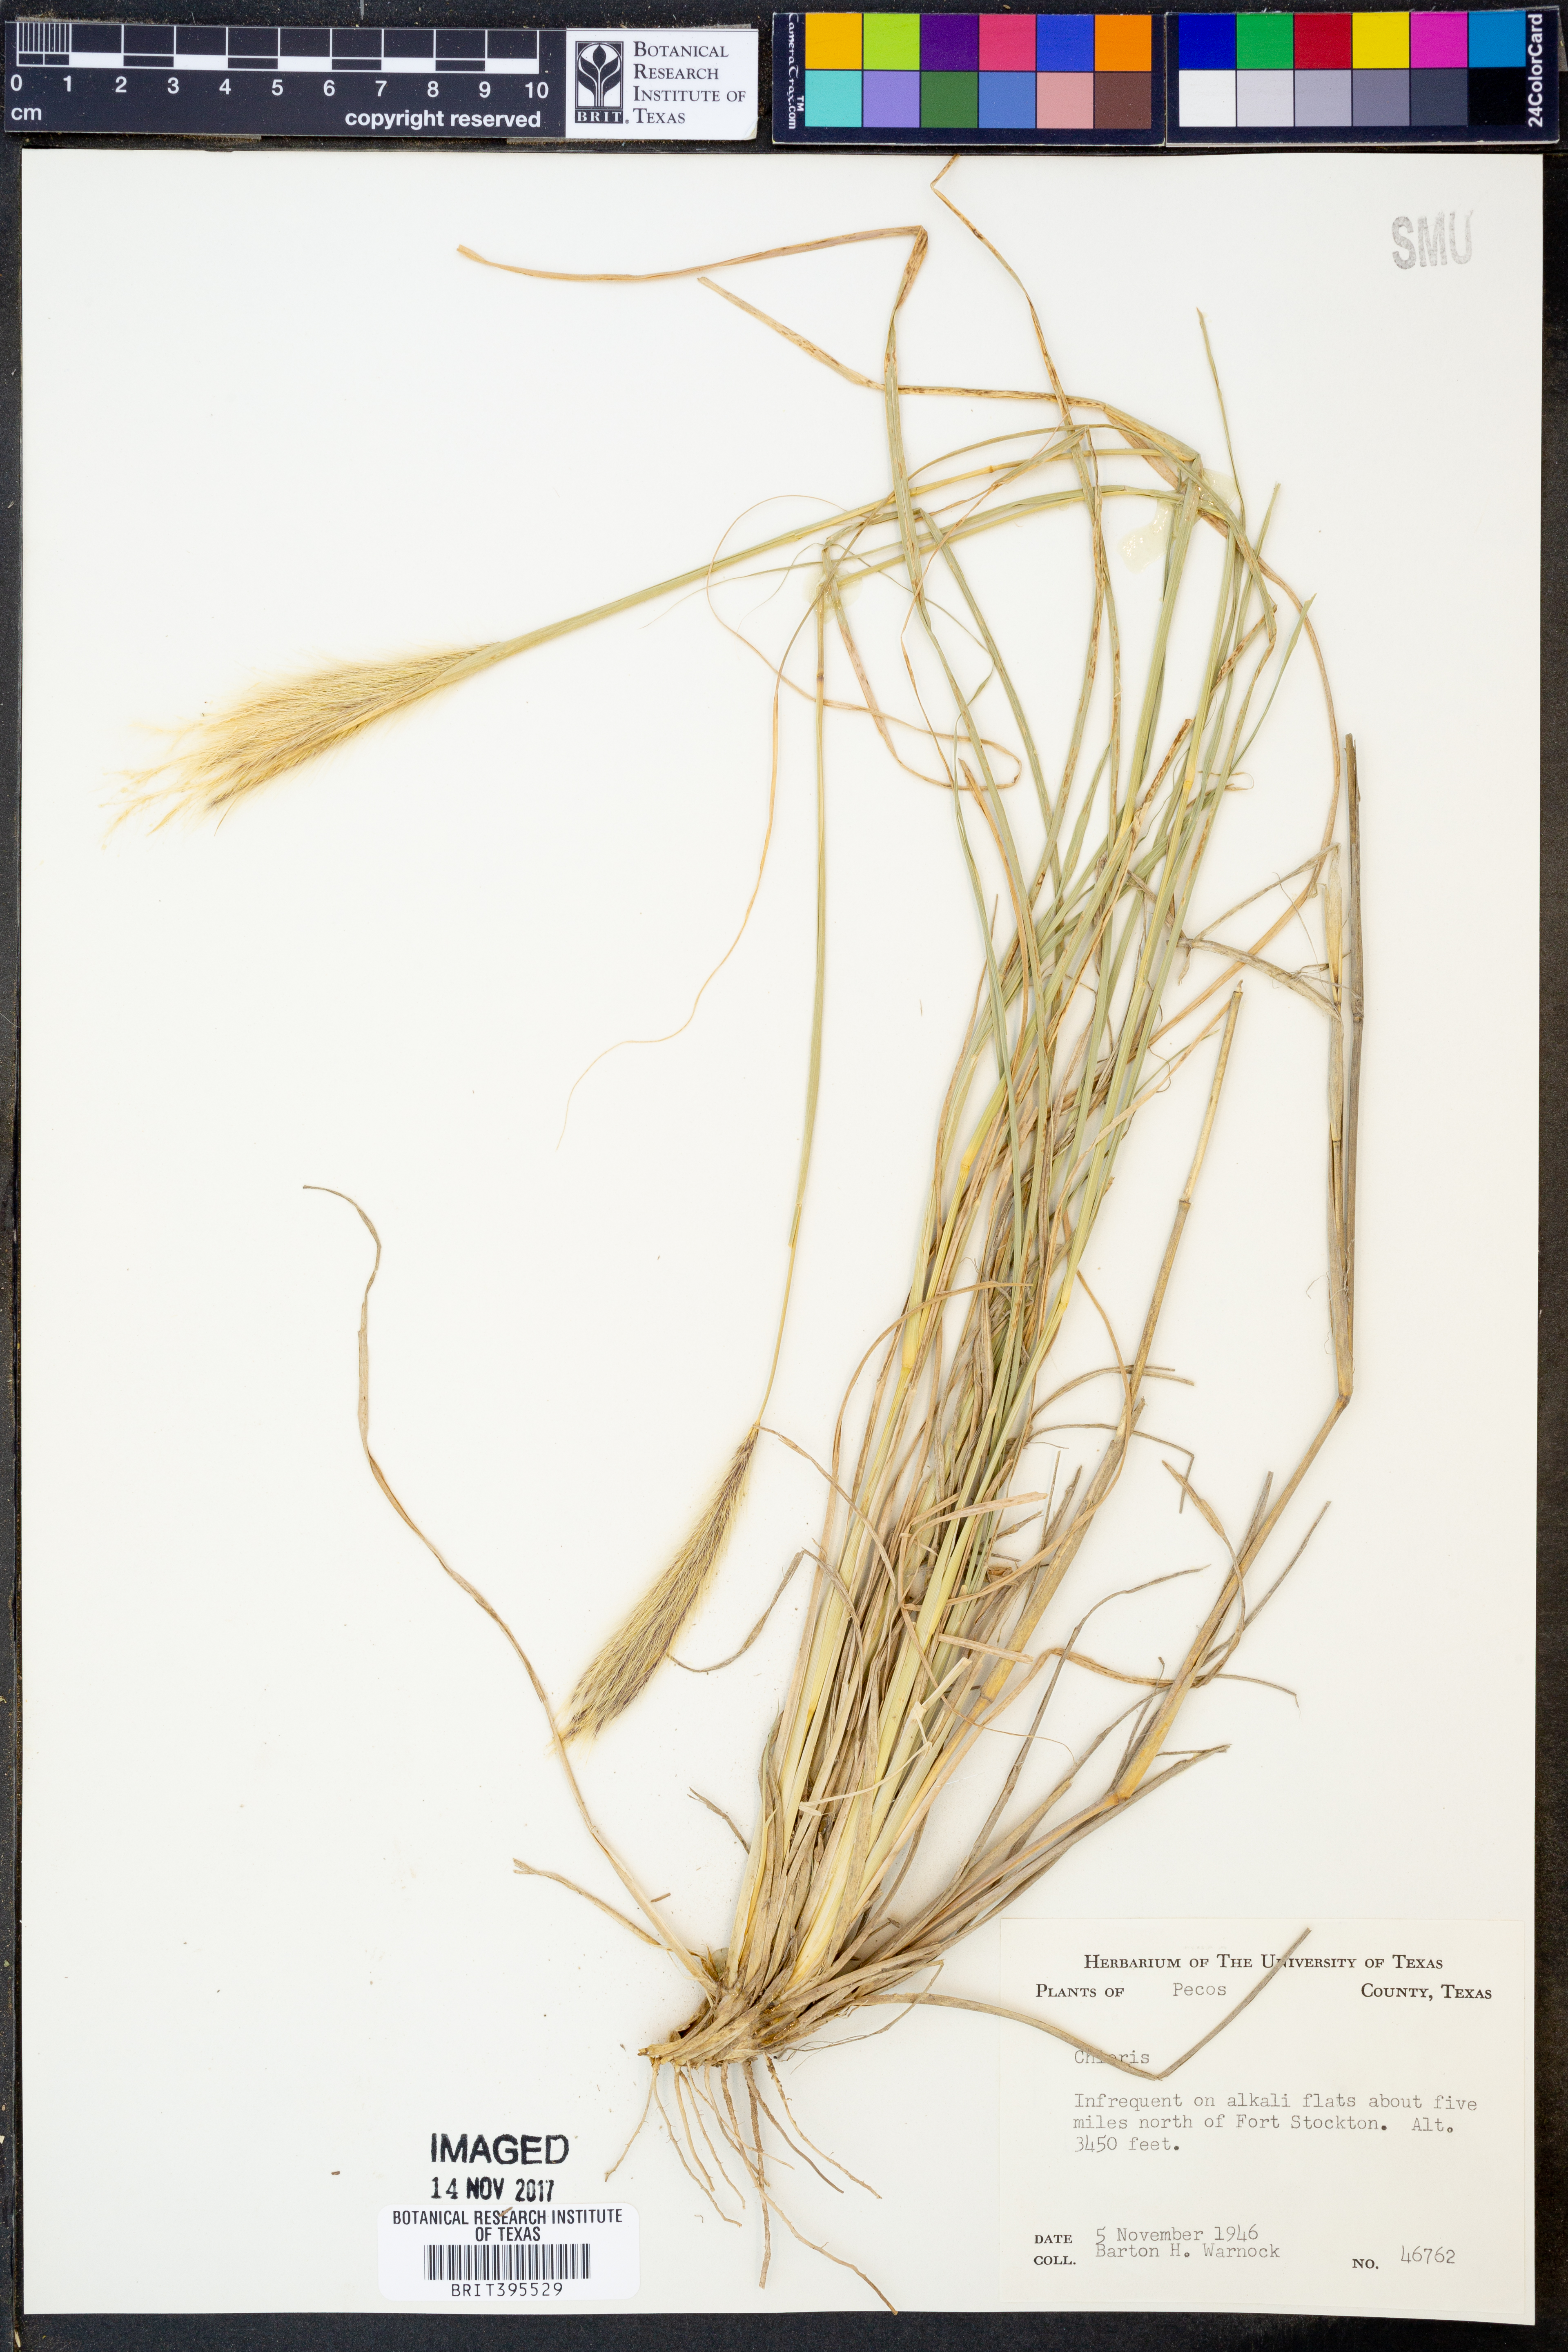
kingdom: Plantae
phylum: Tracheophyta
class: Liliopsida
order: Poales
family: Poaceae
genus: Chloris
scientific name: Chloris
